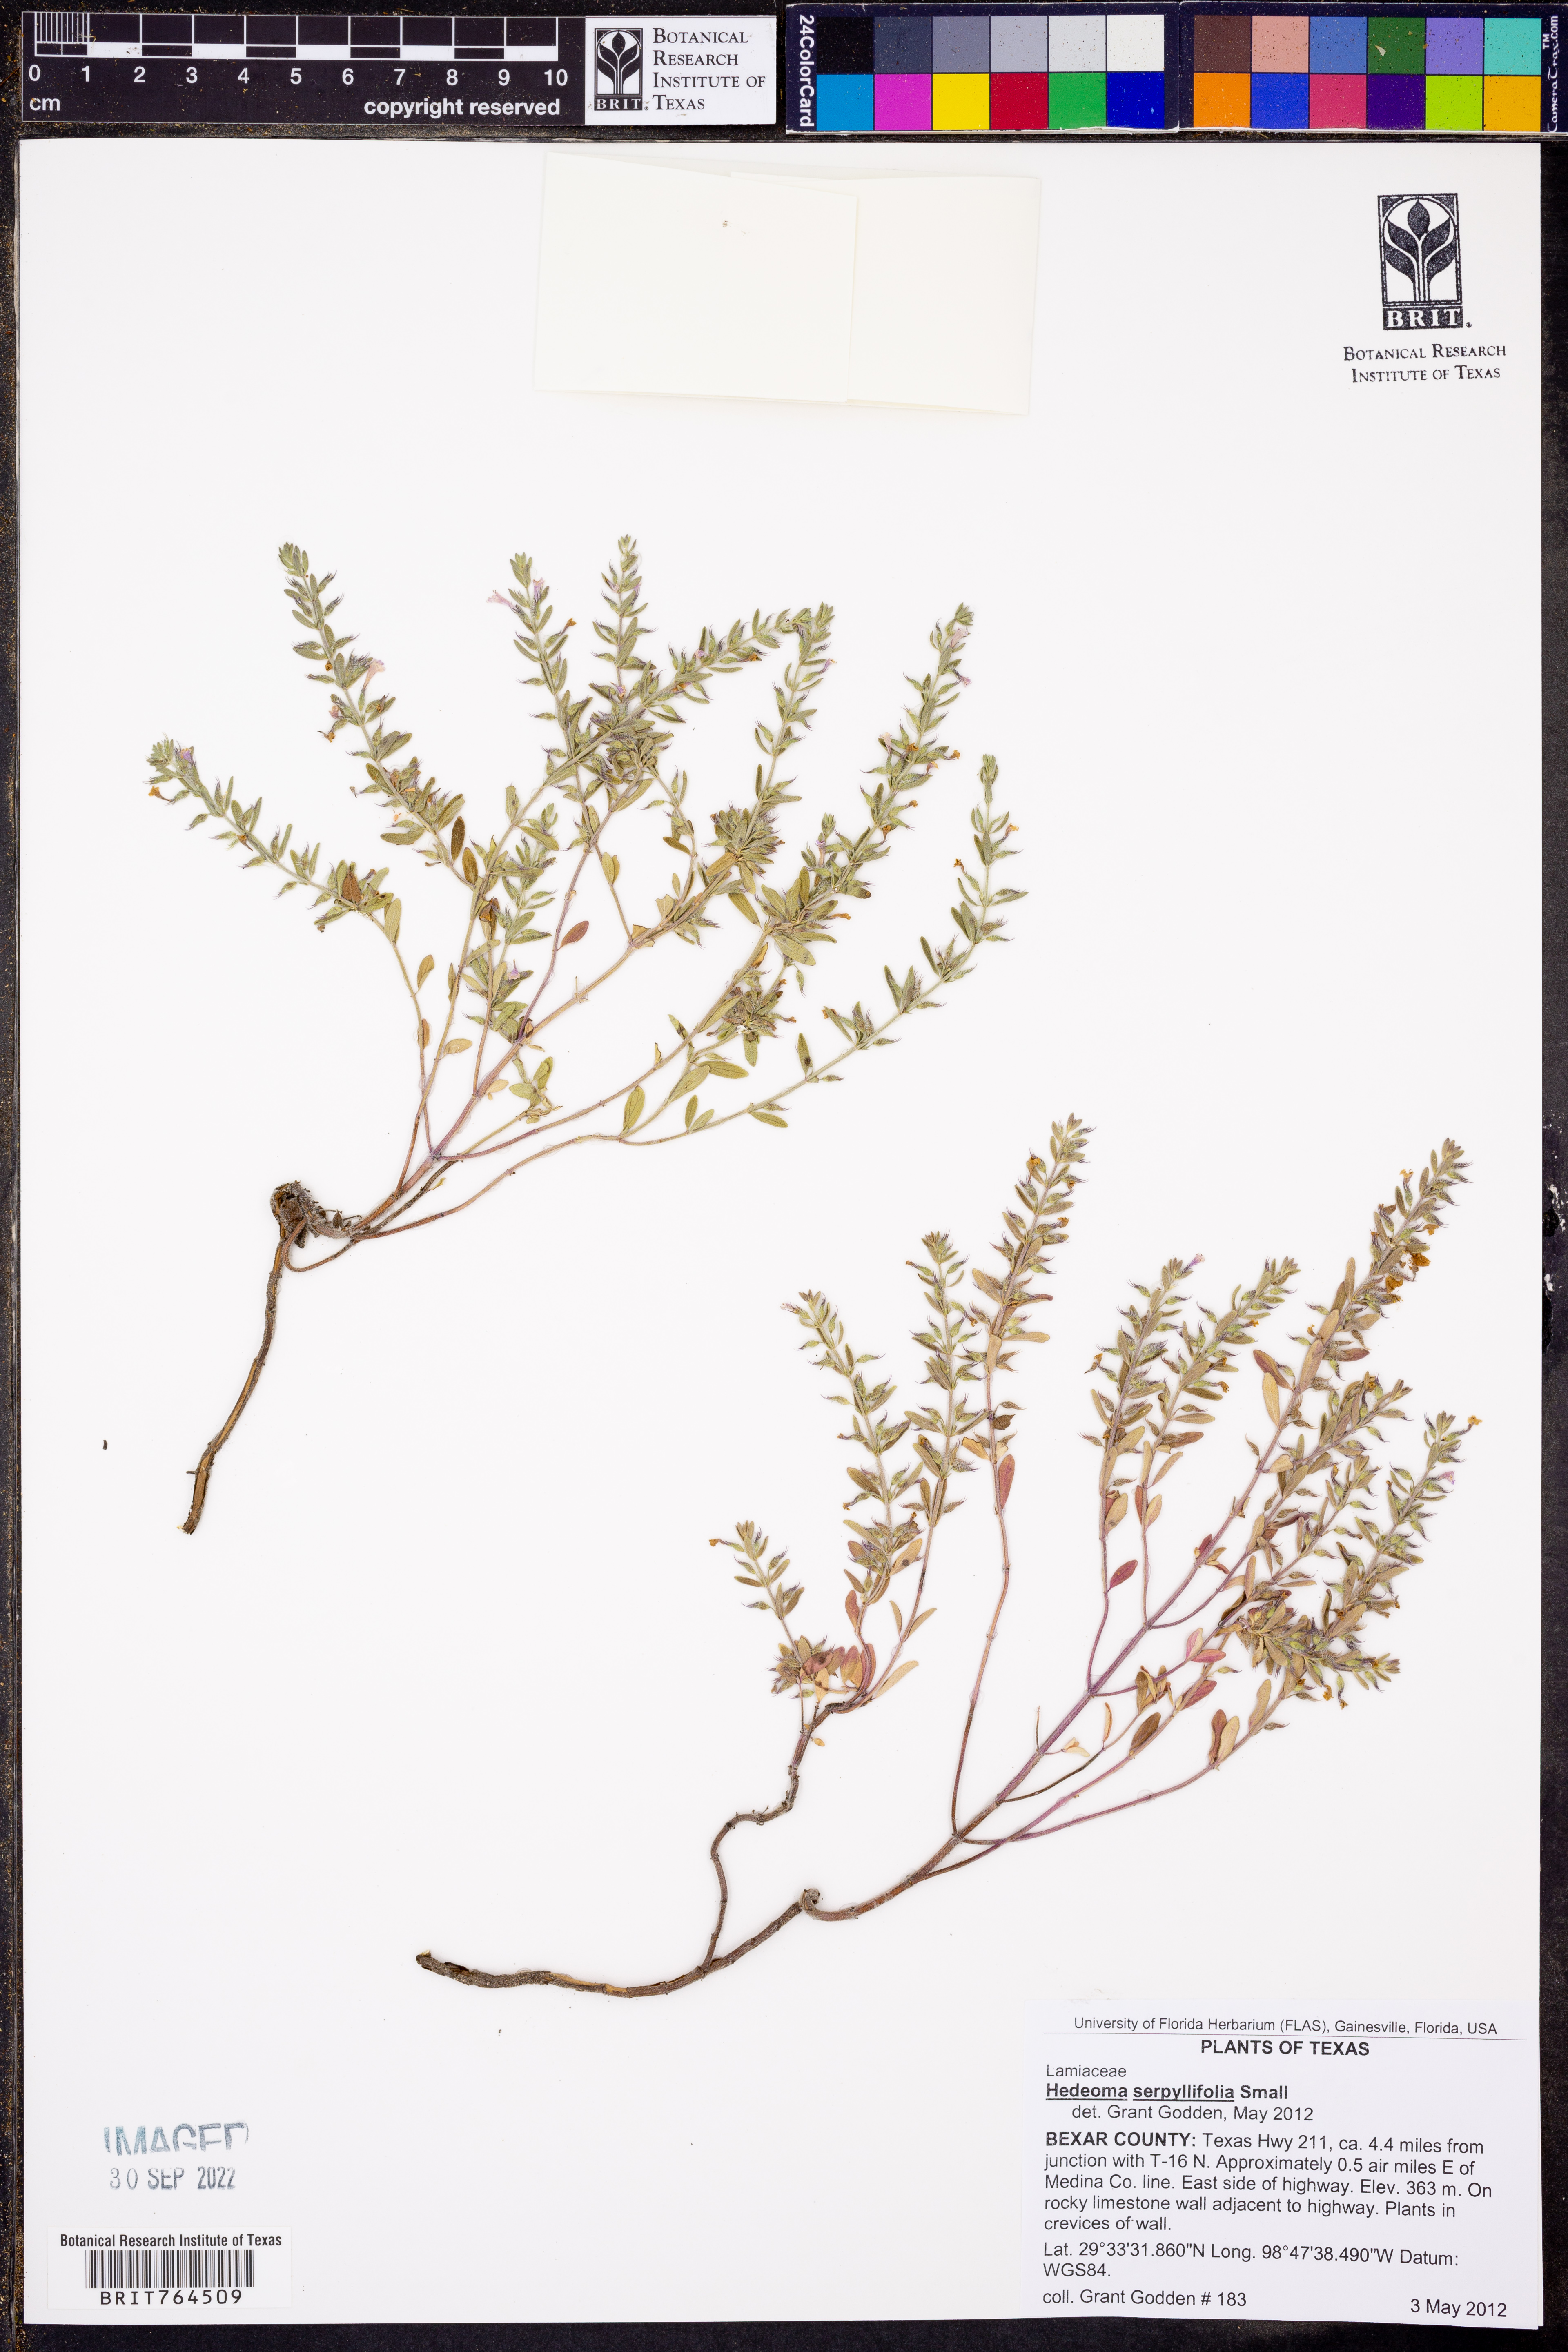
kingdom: Plantae
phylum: Tracheophyta
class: Magnoliopsida
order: Lamiales
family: Lamiaceae
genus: Hedeoma
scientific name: Hedeoma serpyllifolia
